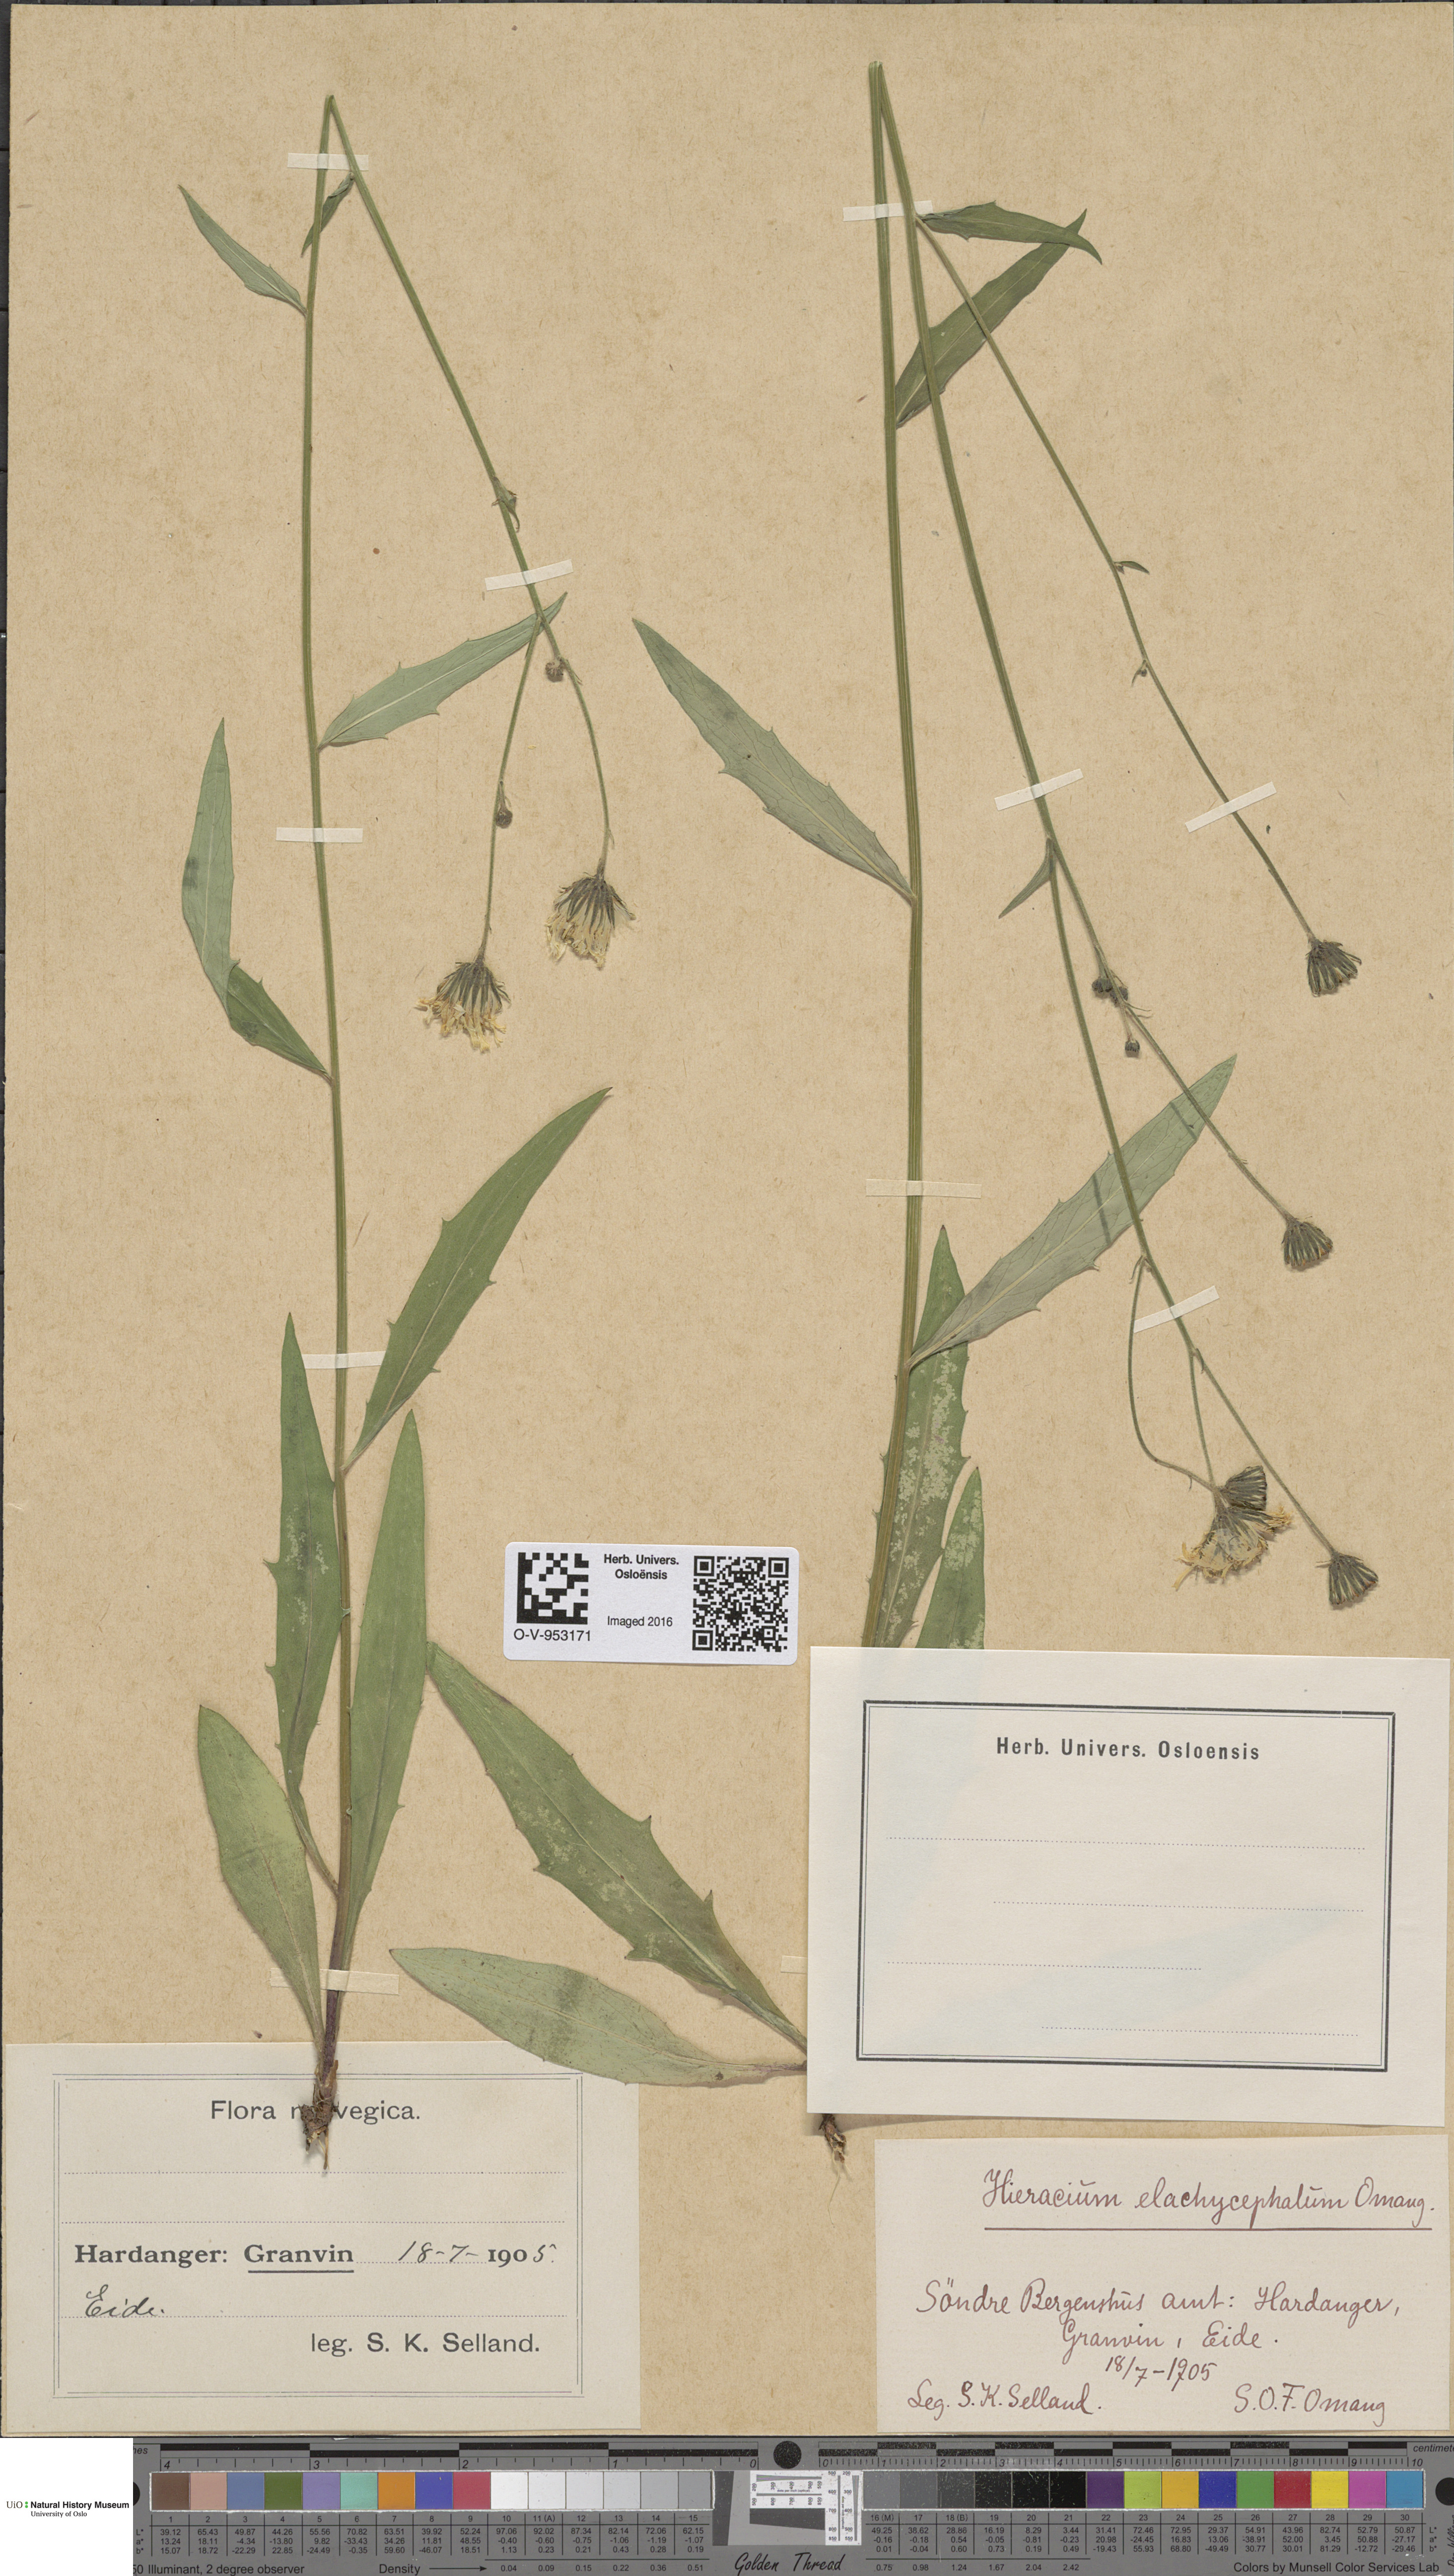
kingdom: Plantae
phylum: Tracheophyta
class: Magnoliopsida
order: Asterales
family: Asteraceae
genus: Hieracium
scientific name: Hieracium
